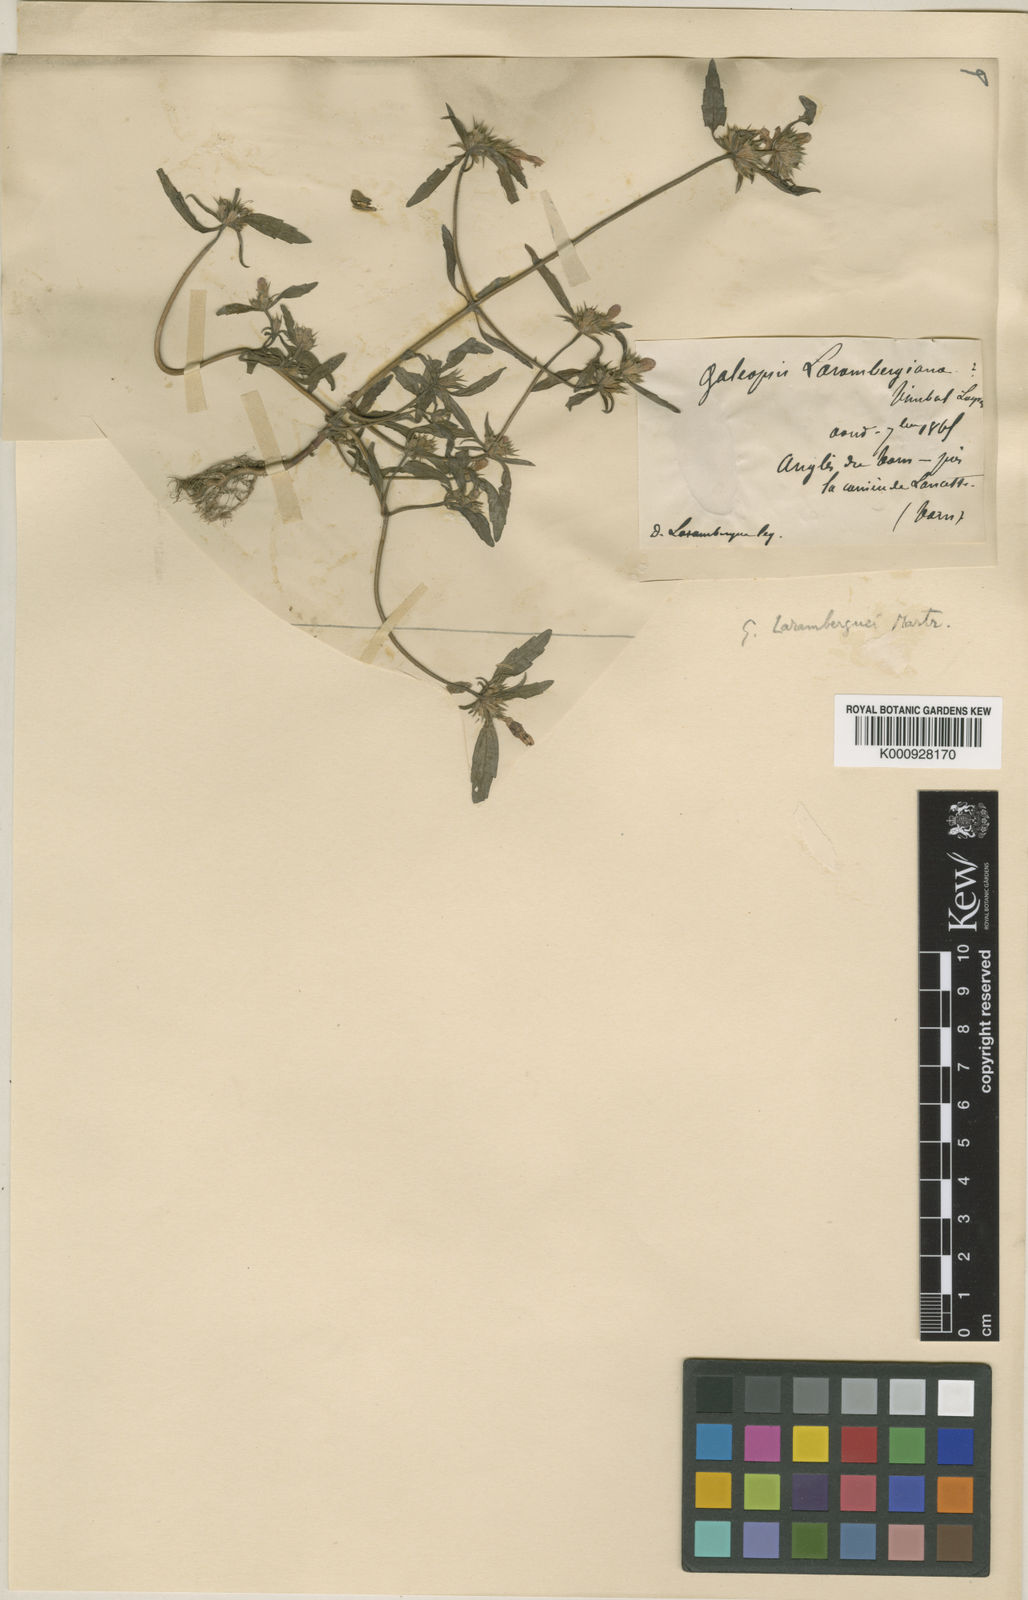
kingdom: Plantae
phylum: Tracheophyta
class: Magnoliopsida
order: Lamiales
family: Lamiaceae
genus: Galeopsis
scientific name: Galeopsis
